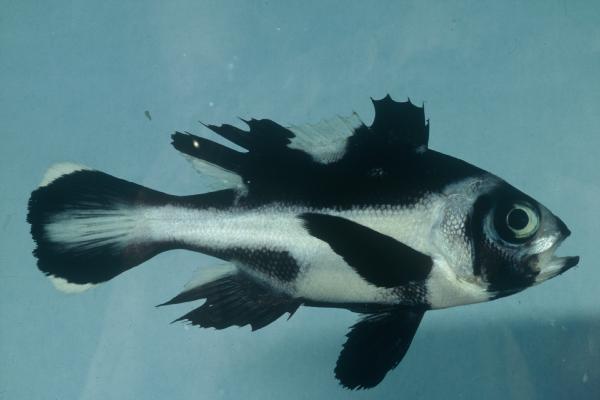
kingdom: Animalia
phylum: Chordata
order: Perciformes
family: Lutjanidae
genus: Macolor
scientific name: Macolor niger
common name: Black snapper
